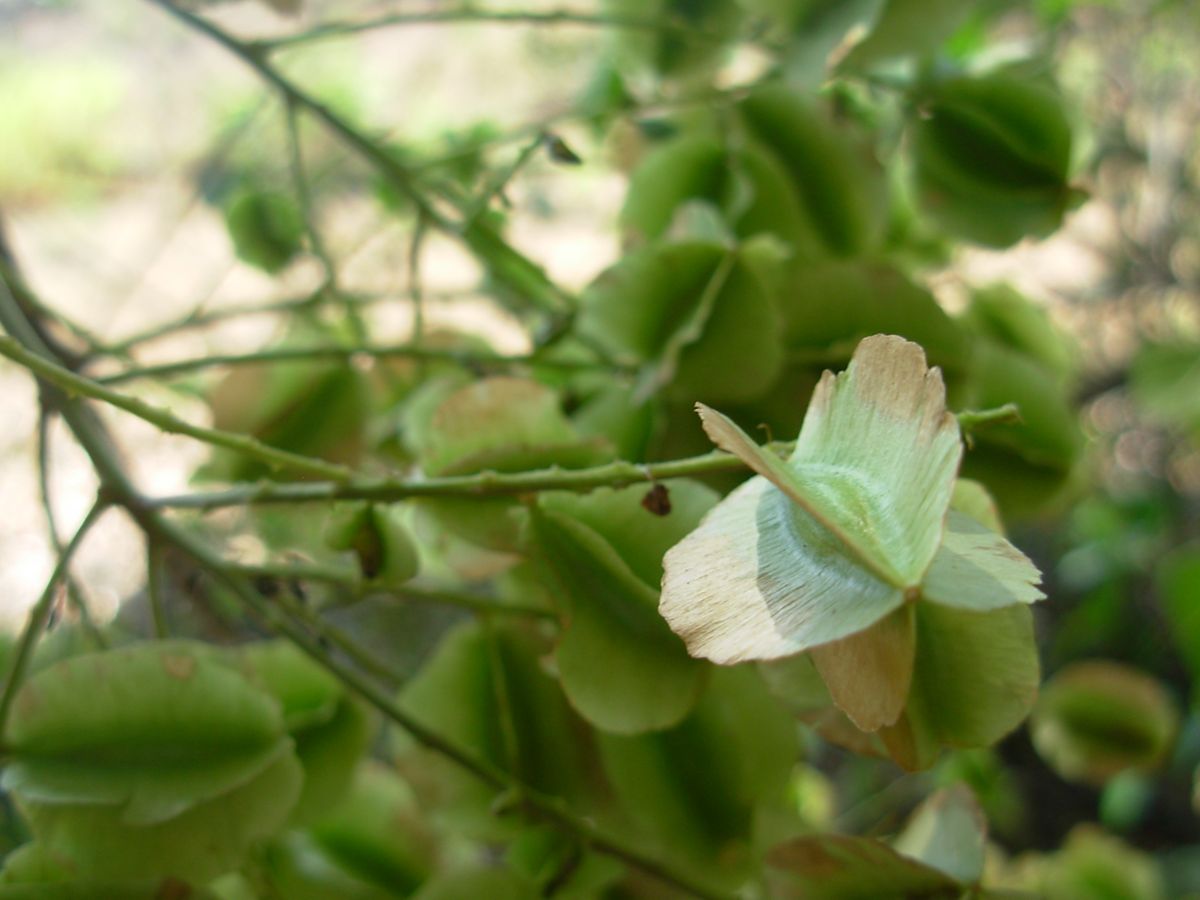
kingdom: Plantae
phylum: Tracheophyta
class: Magnoliopsida
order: Myrtales
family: Combretaceae
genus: Combretum
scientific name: Combretum farinosum
